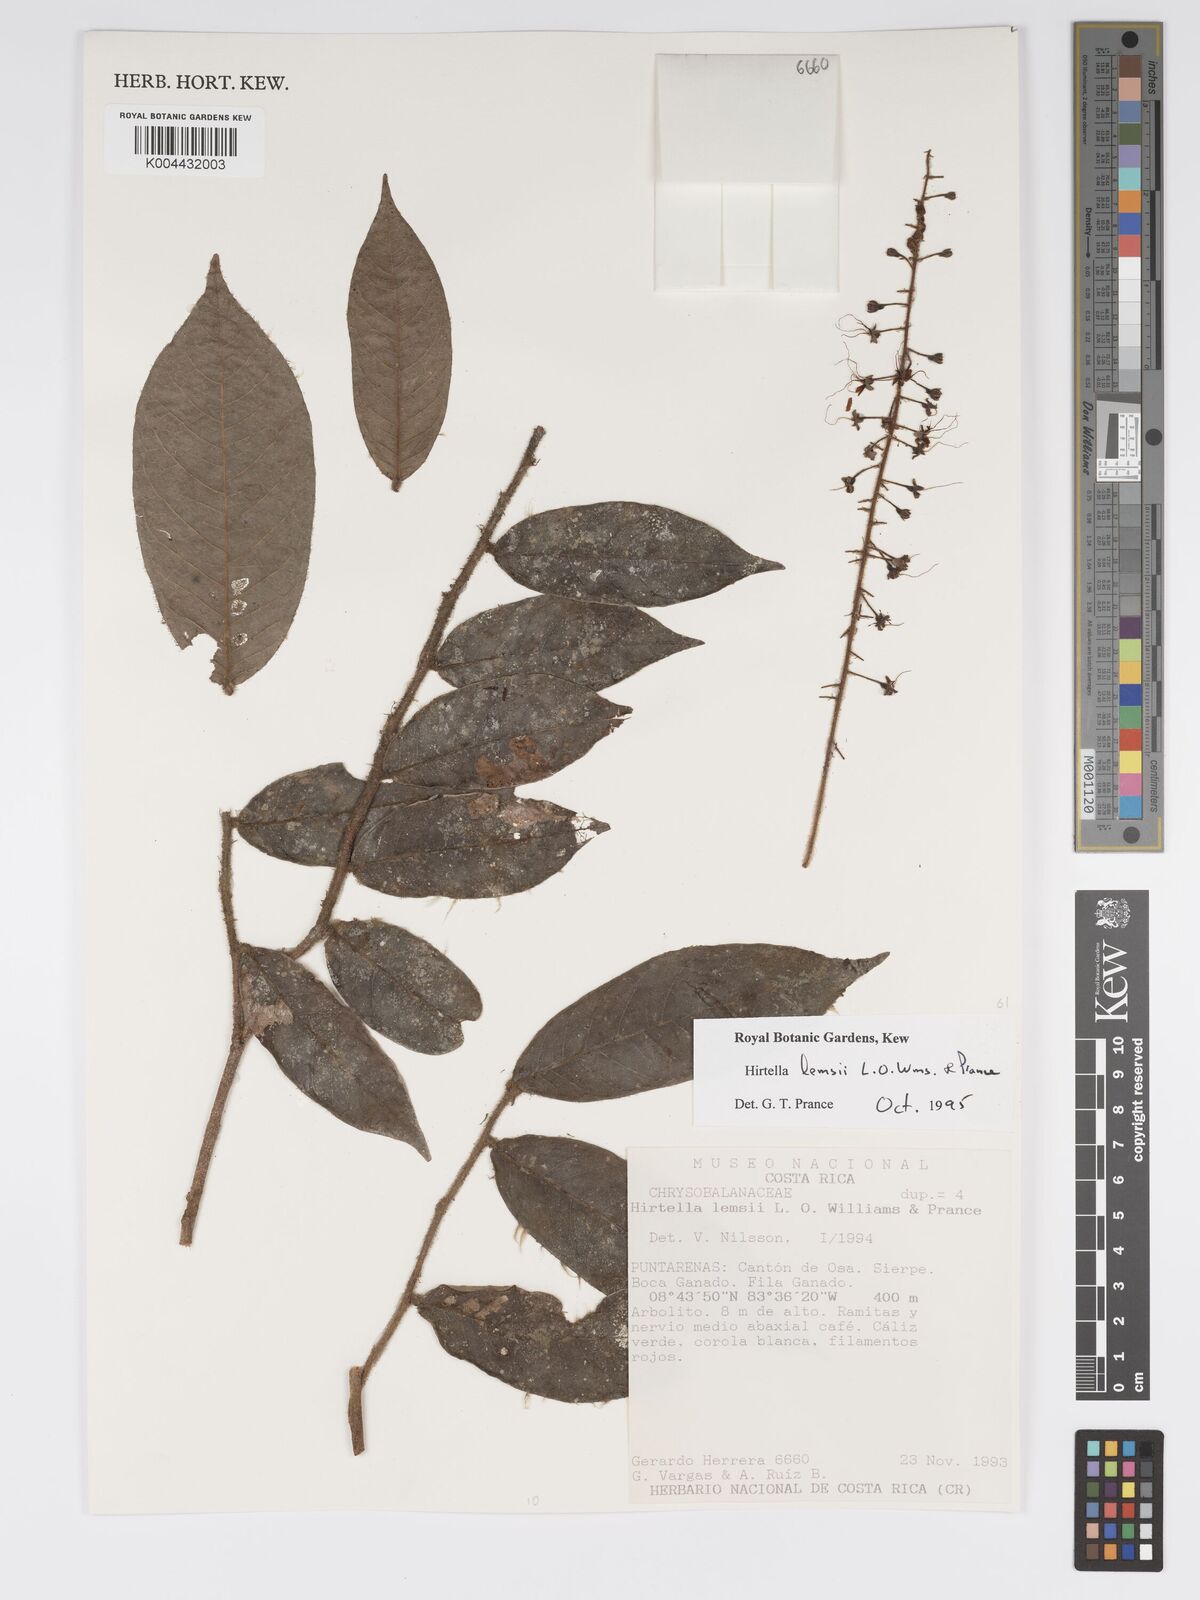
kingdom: Plantae
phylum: Tracheophyta
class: Magnoliopsida
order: Malpighiales
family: Chrysobalanaceae
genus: Hirtella
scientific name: Hirtella lemsii
